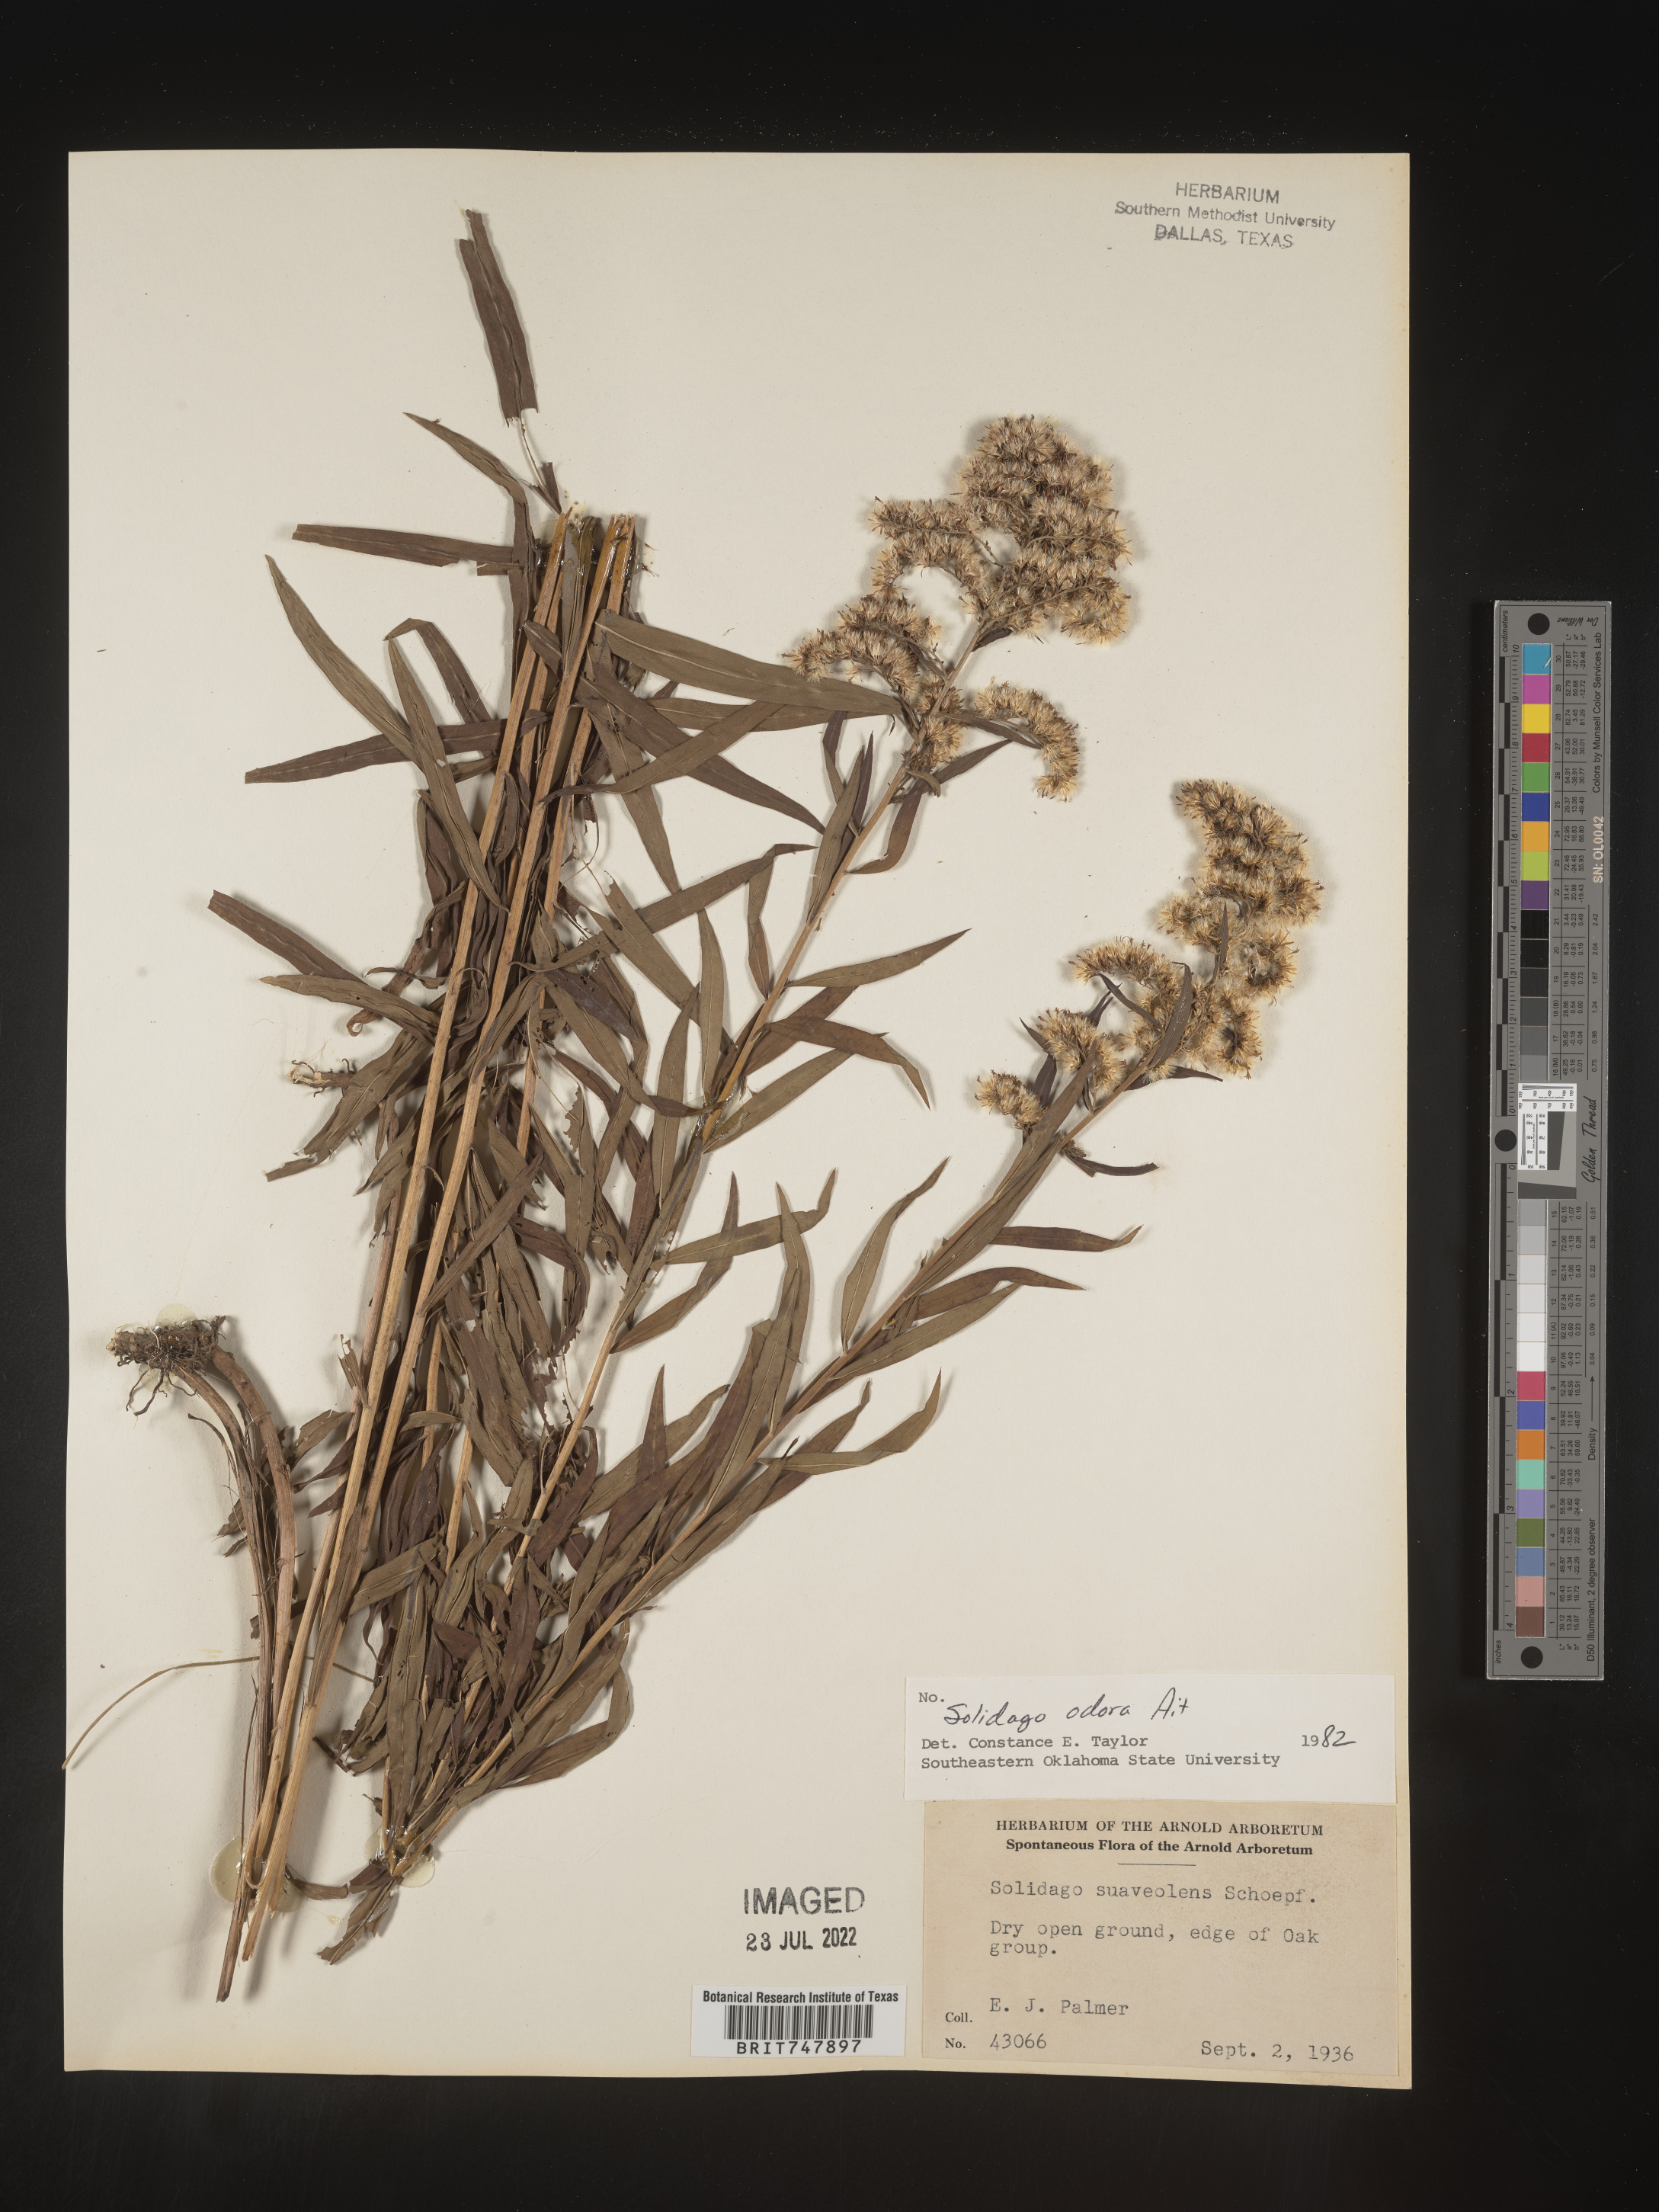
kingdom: Plantae
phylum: Tracheophyta
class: Magnoliopsida
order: Asterales
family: Asteraceae
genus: Solidago
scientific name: Solidago odora
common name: Anise-scented goldenrod
